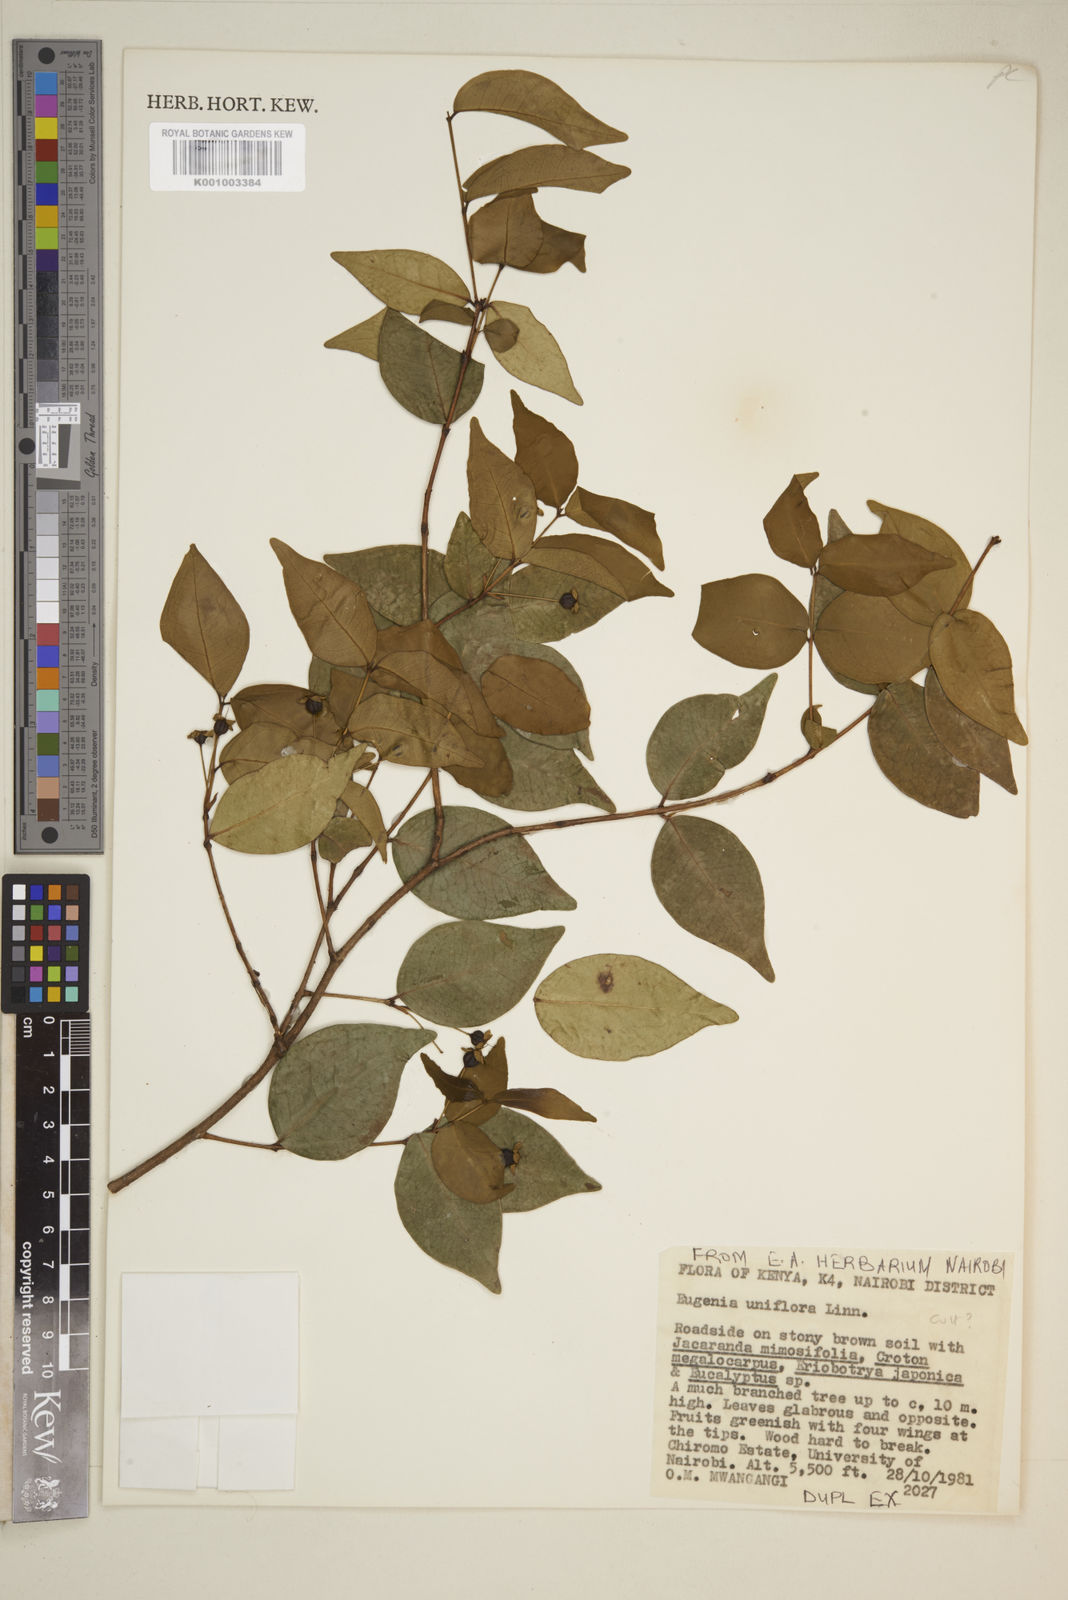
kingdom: Plantae
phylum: Tracheophyta
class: Magnoliopsida
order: Myrtales
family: Myrtaceae
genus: Eugenia
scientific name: Eugenia uniflora
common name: Surinam cherry
